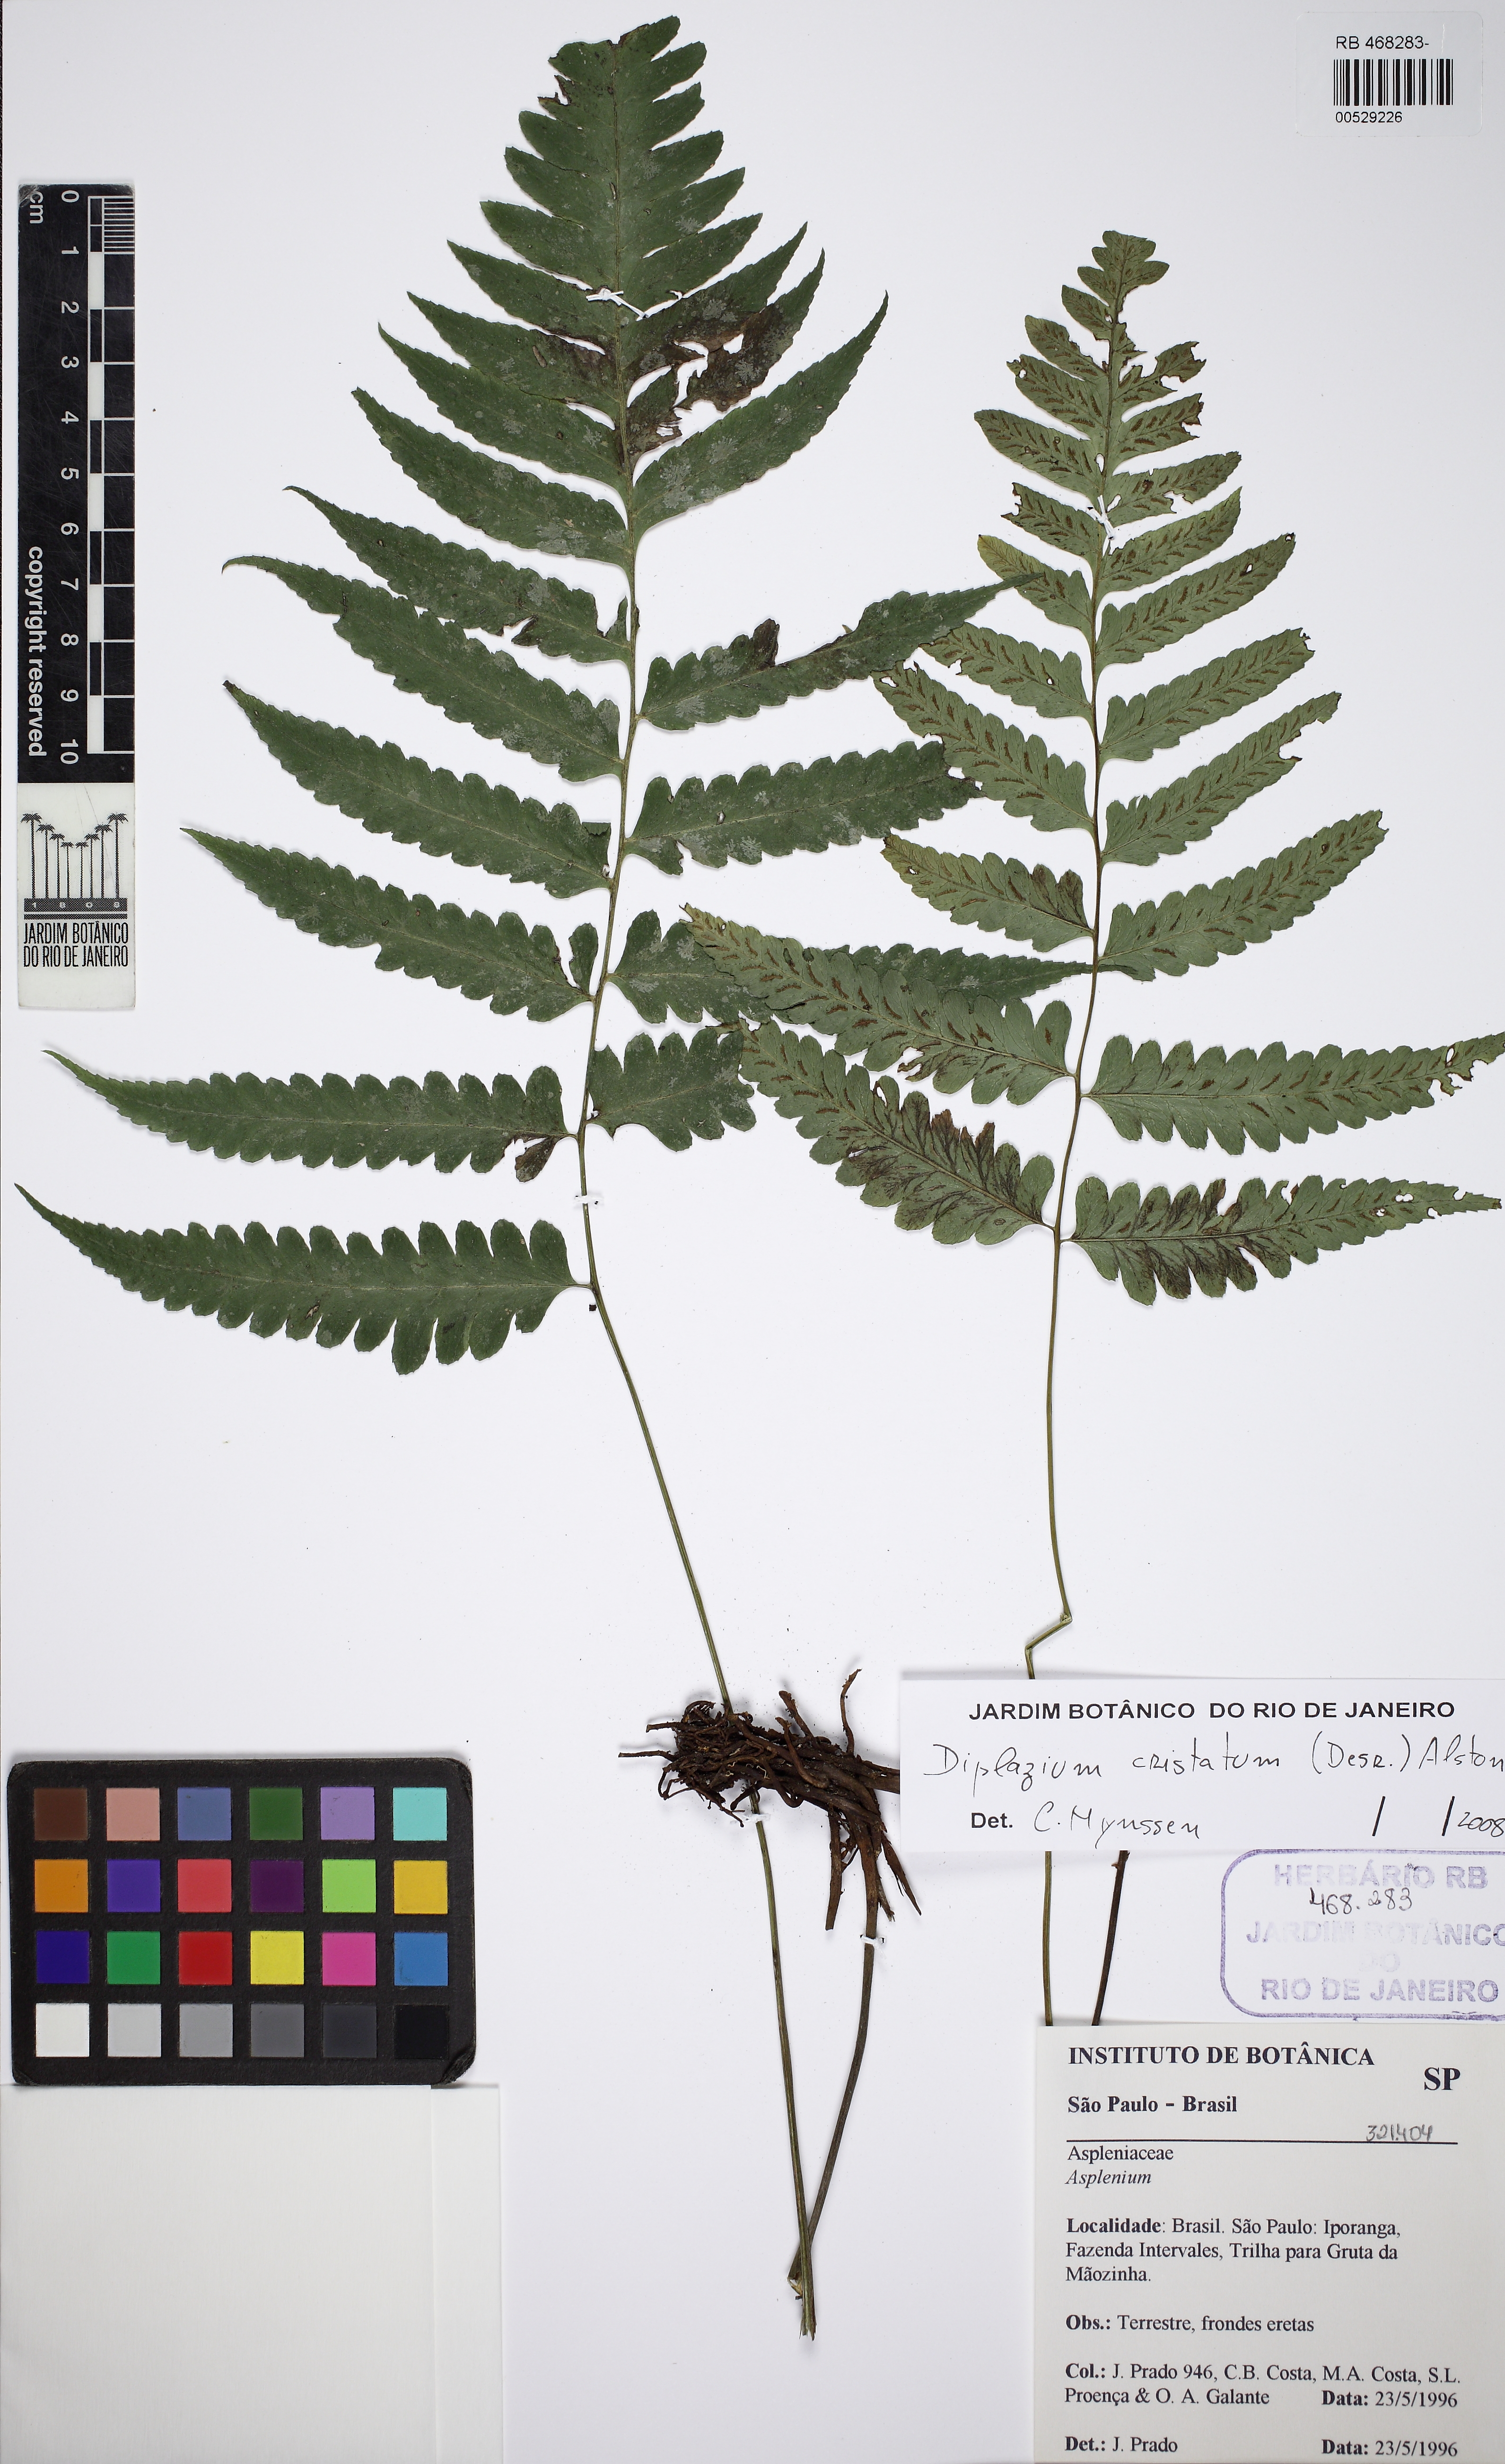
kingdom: Plantae
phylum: Tracheophyta
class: Polypodiopsida
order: Polypodiales
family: Athyriaceae
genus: Diplazium
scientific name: Diplazium cristatum
